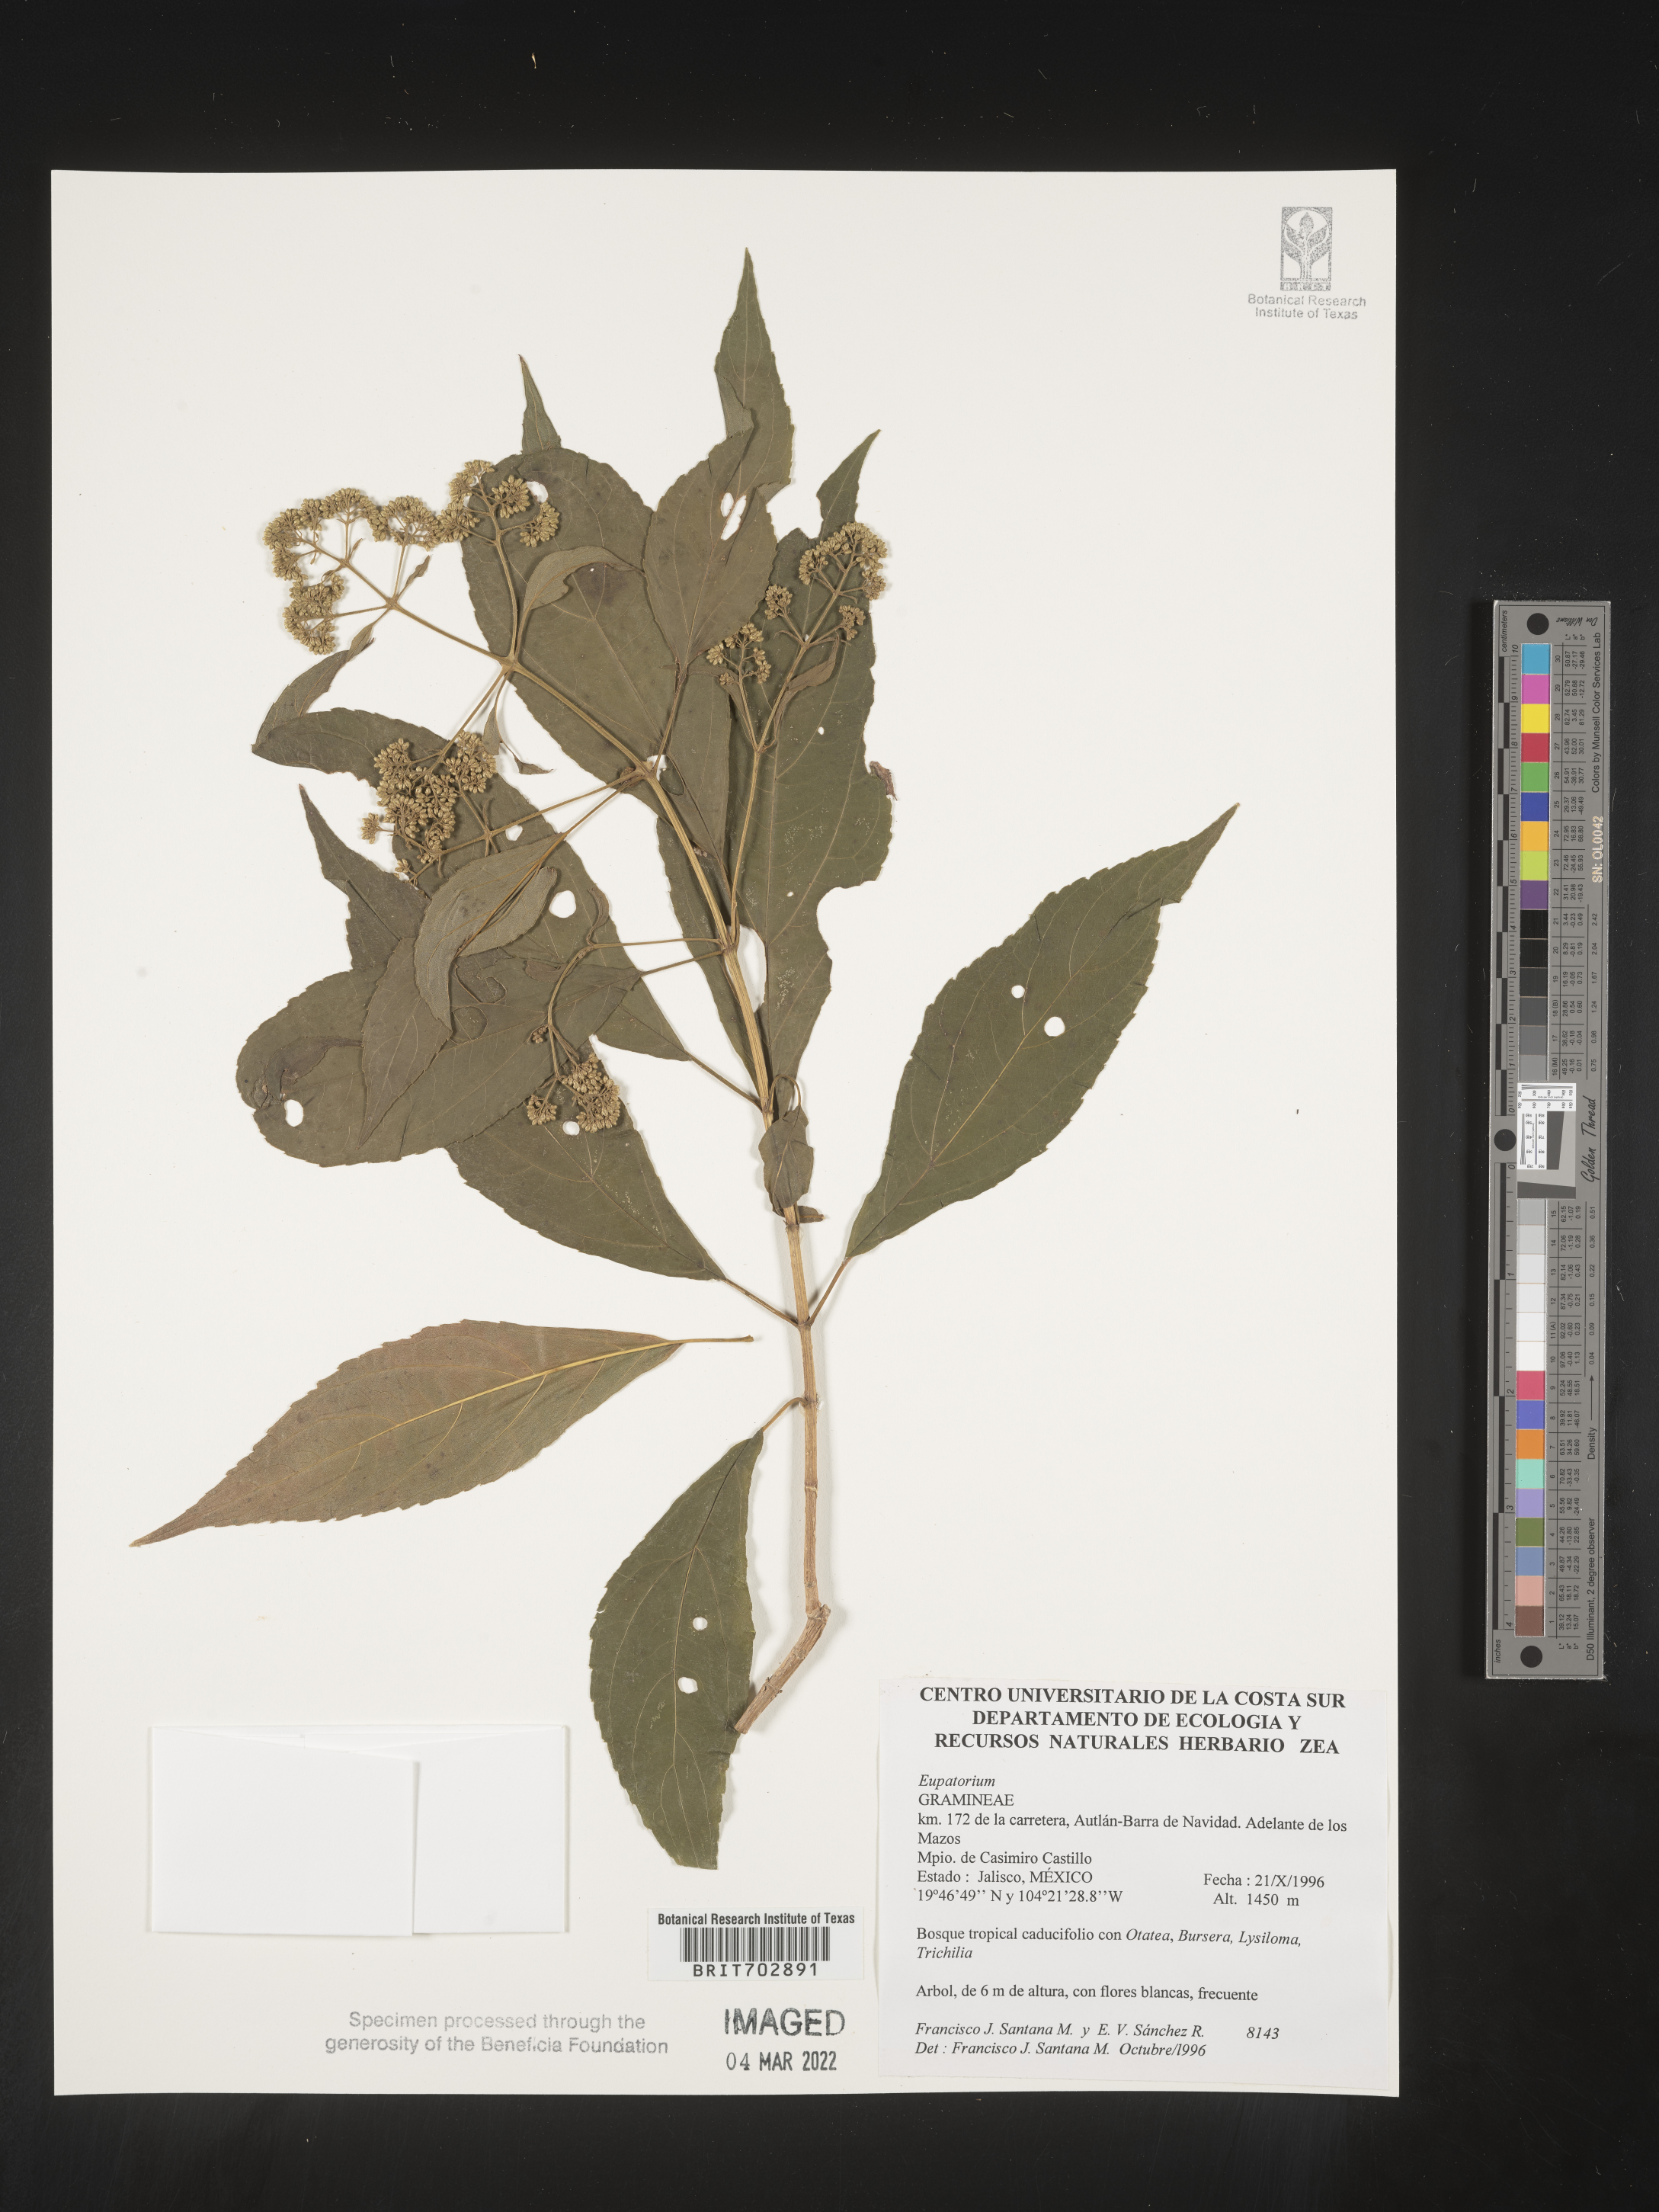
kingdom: Plantae
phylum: Tracheophyta
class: Magnoliopsida
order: Asterales
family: Asteraceae
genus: Eupatorium
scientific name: Eupatorium
